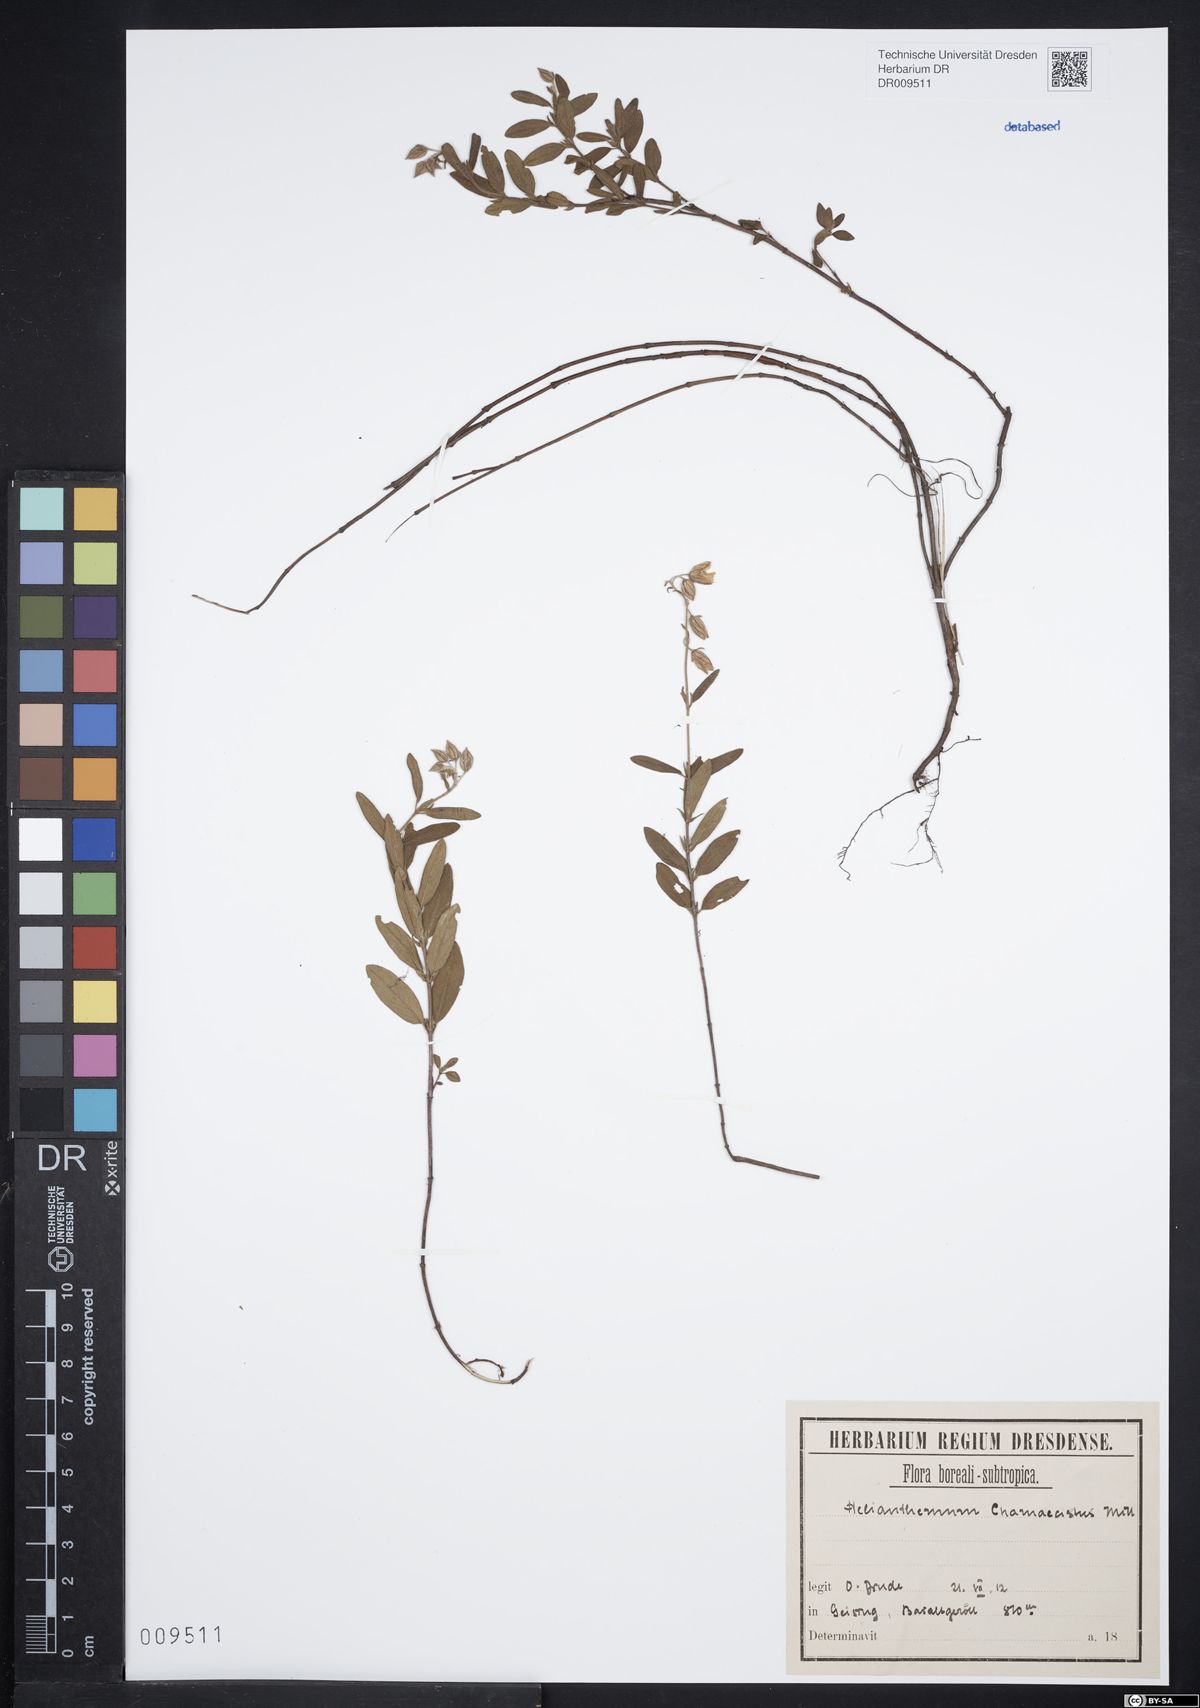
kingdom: Plantae
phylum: Tracheophyta
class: Magnoliopsida
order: Malvales
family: Cistaceae
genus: Helianthemum
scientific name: Helianthemum nummularium
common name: Common rock-rose
